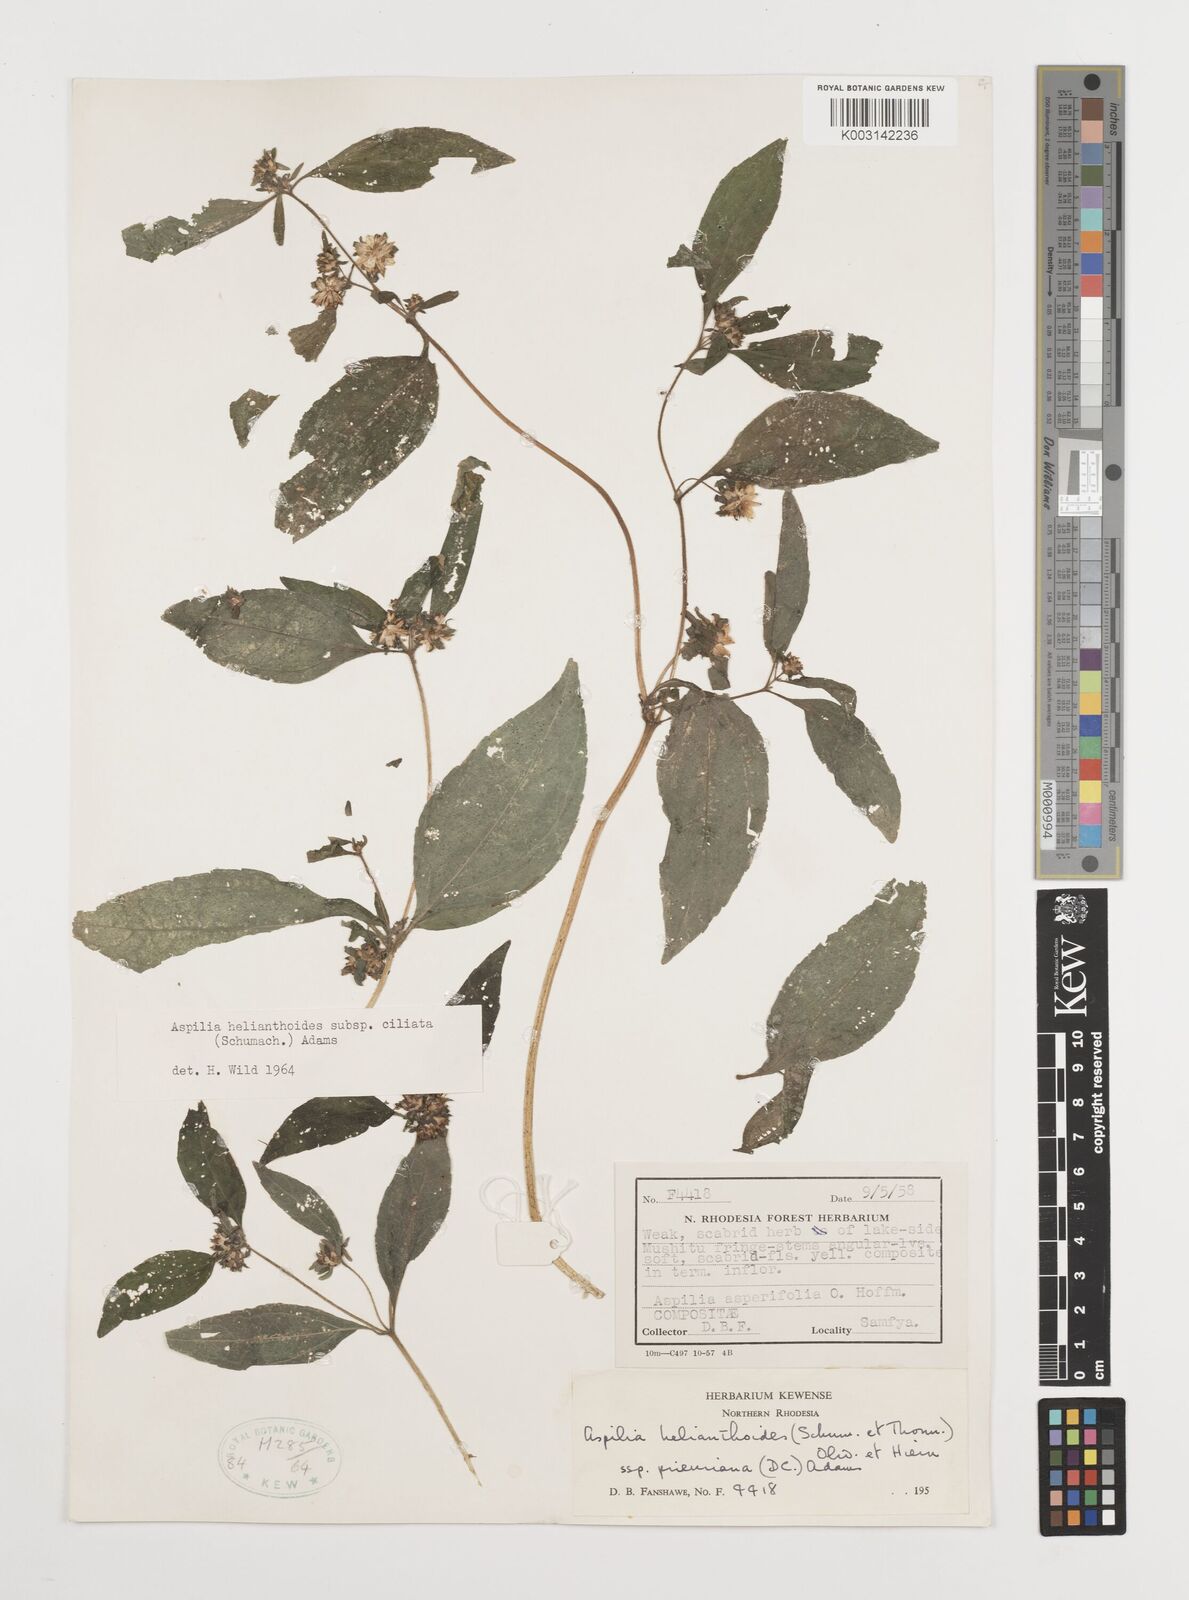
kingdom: Plantae
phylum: Tracheophyta
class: Magnoliopsida
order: Asterales
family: Asteraceae
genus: Aspilia
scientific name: Aspilia ciliata
